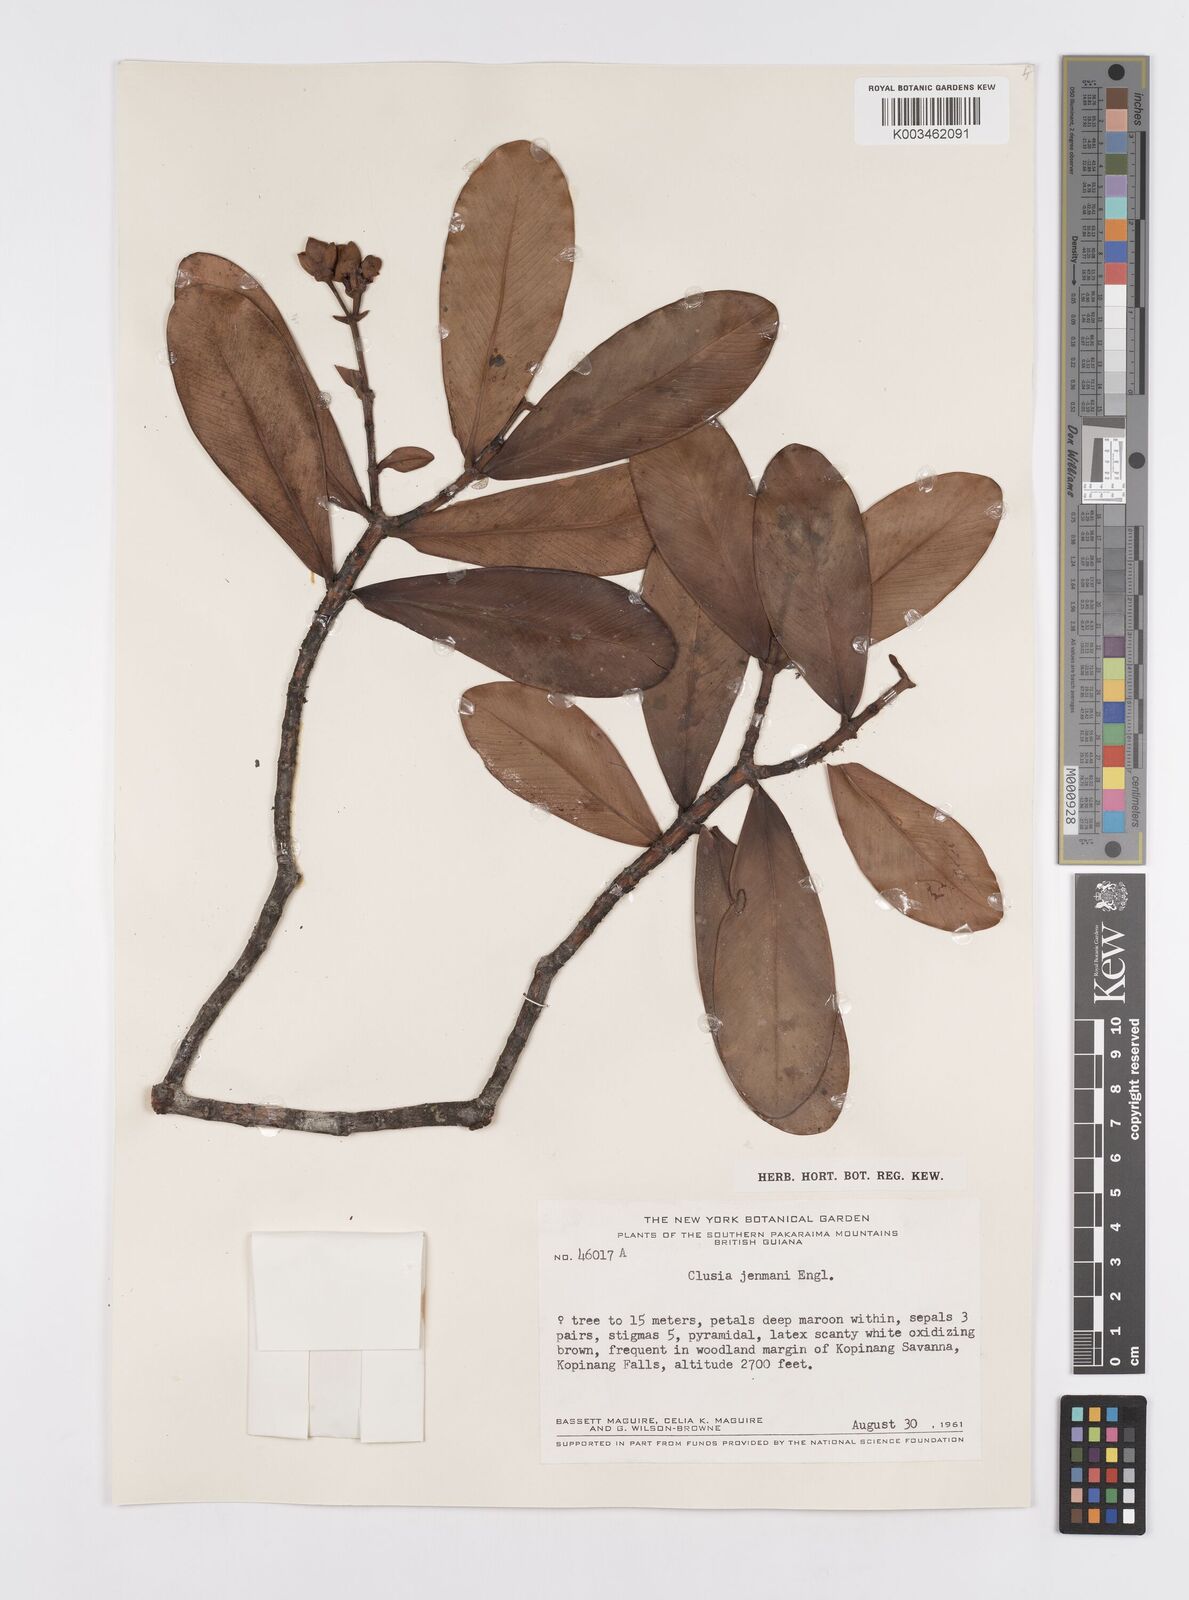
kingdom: Plantae
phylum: Tracheophyta
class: Magnoliopsida
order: Malpighiales
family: Clusiaceae
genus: Clusia
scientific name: Clusia myriandra
